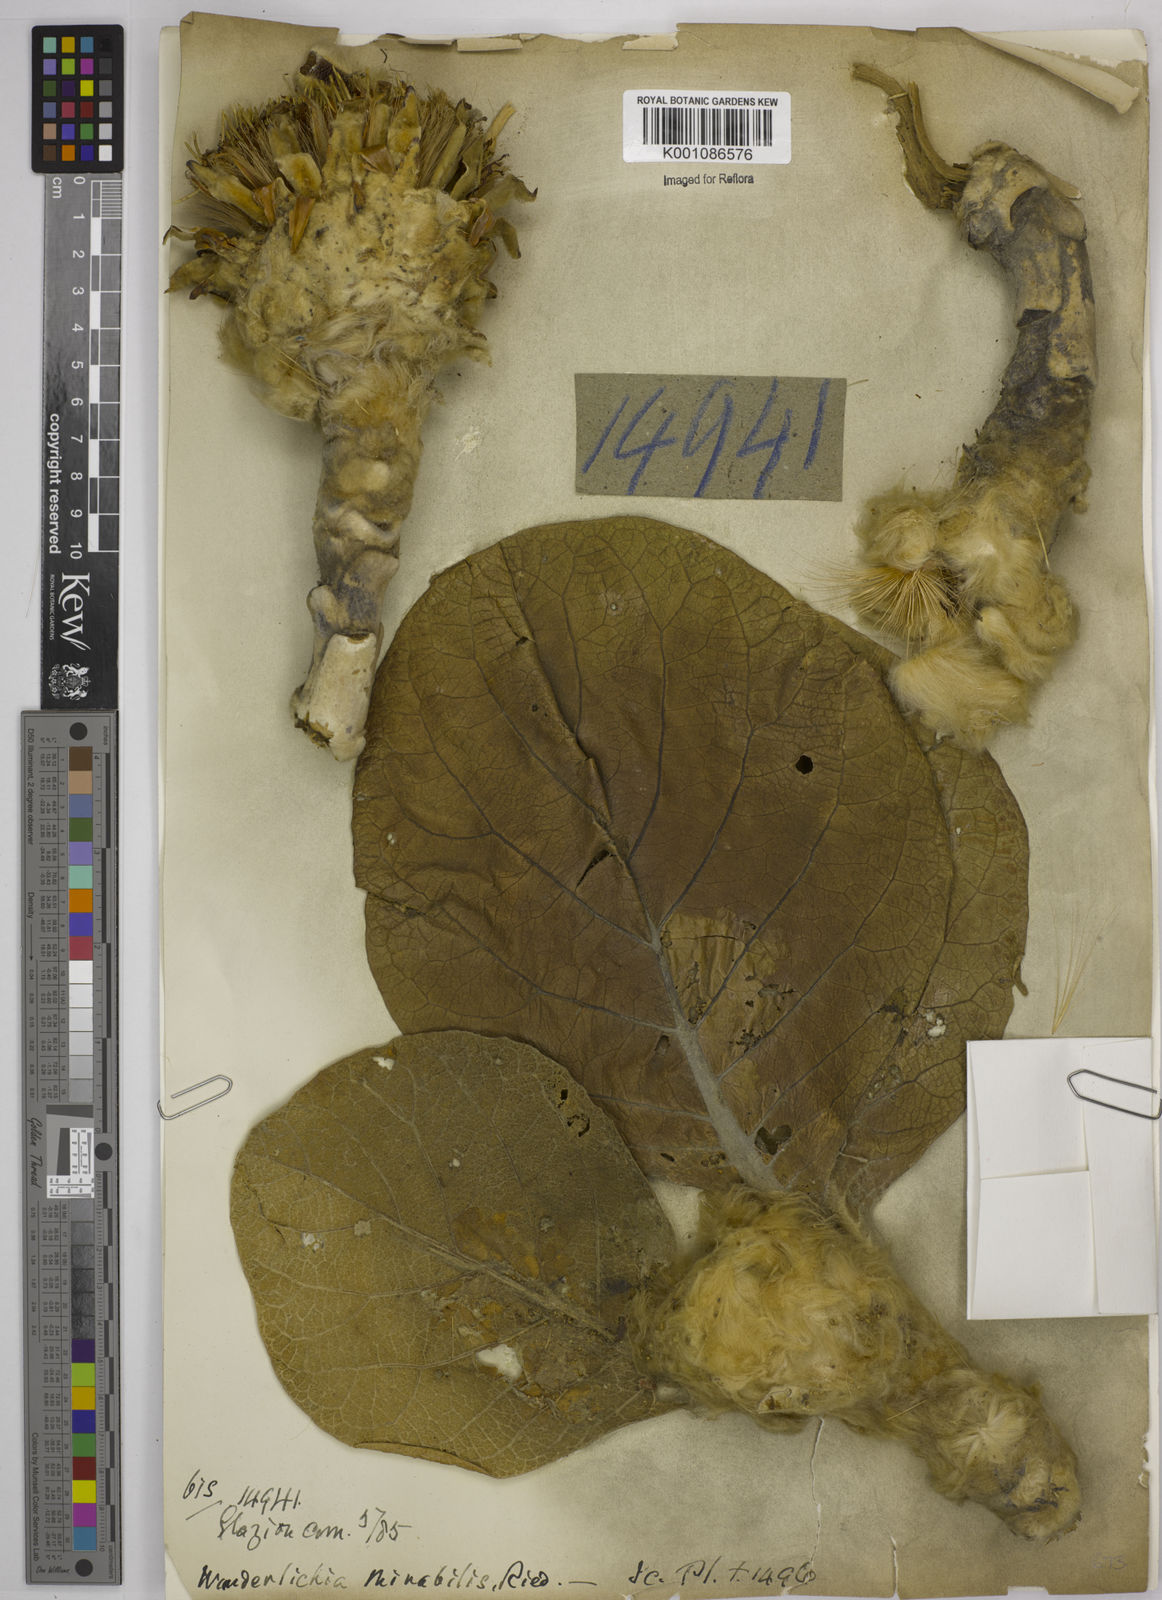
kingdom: Plantae
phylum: Tracheophyta
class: Magnoliopsida
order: Asterales
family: Asteraceae
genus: Wunderlichia
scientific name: Wunderlichia mirabilis
